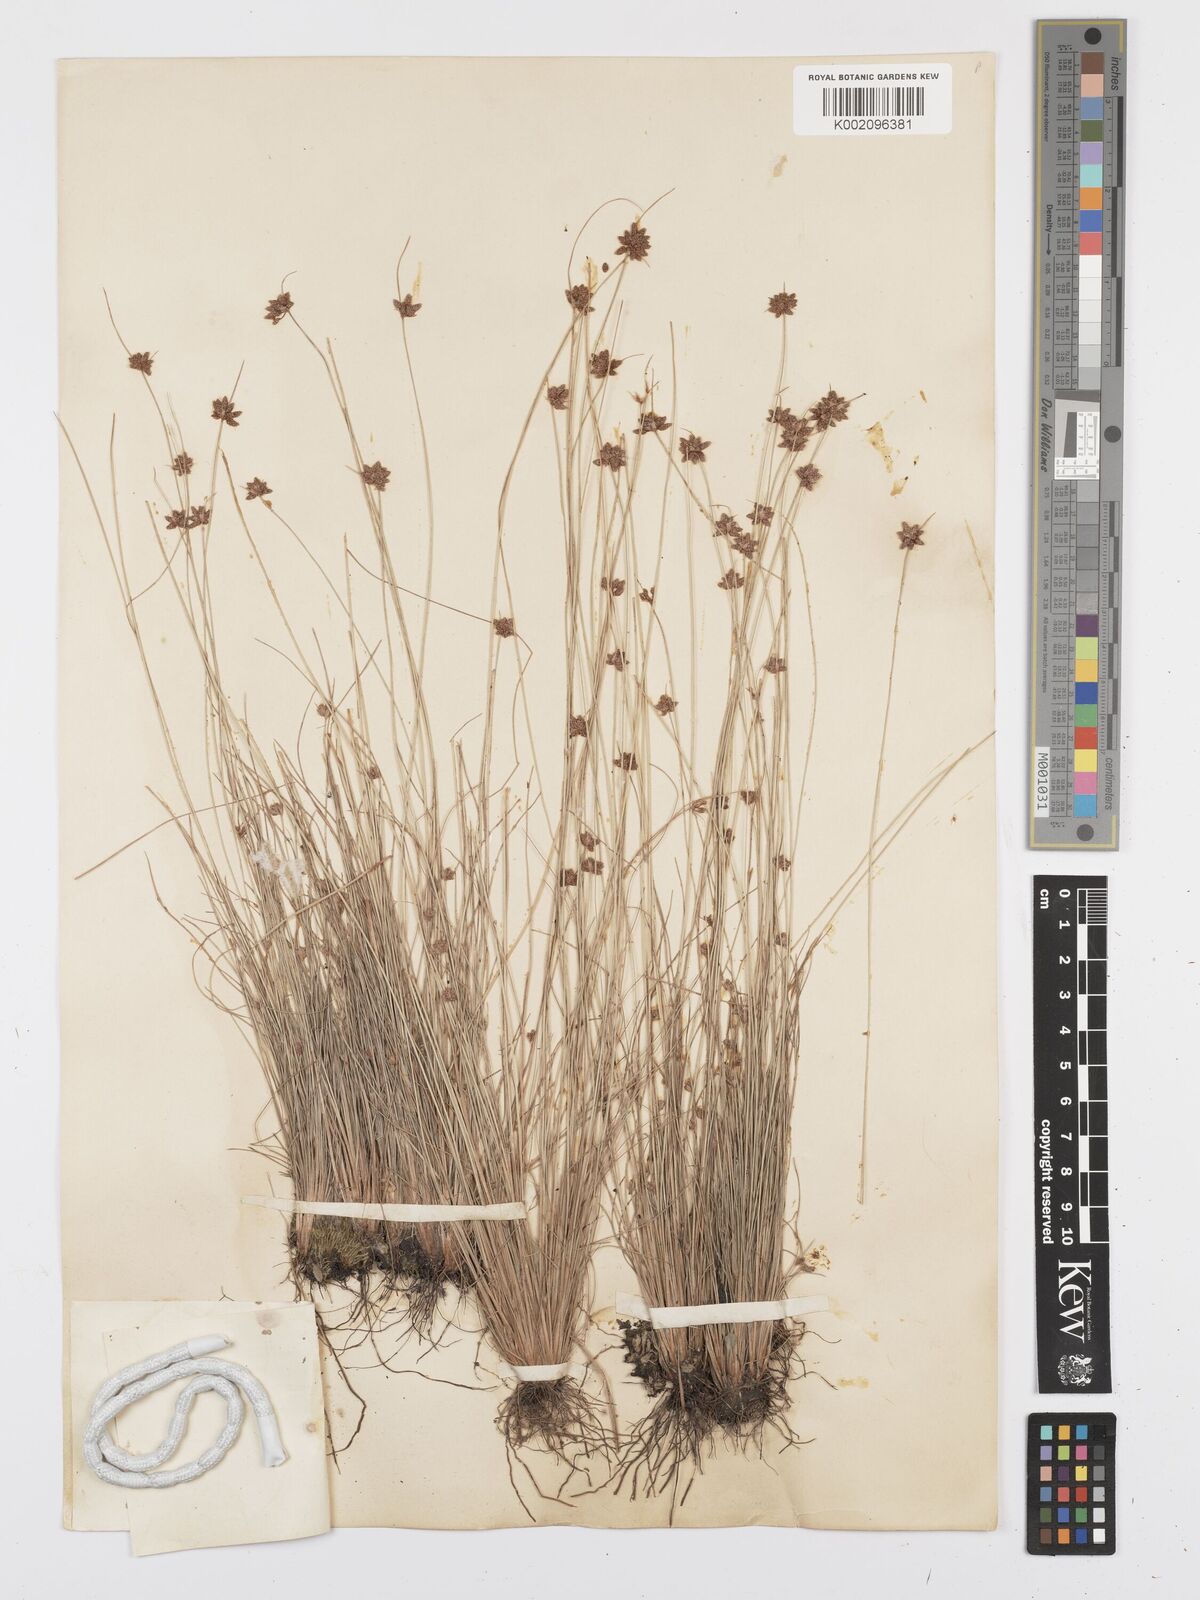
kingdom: Plantae
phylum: Tracheophyta
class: Liliopsida
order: Poales
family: Cyperaceae
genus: Bulbostylis
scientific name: Bulbostylis
